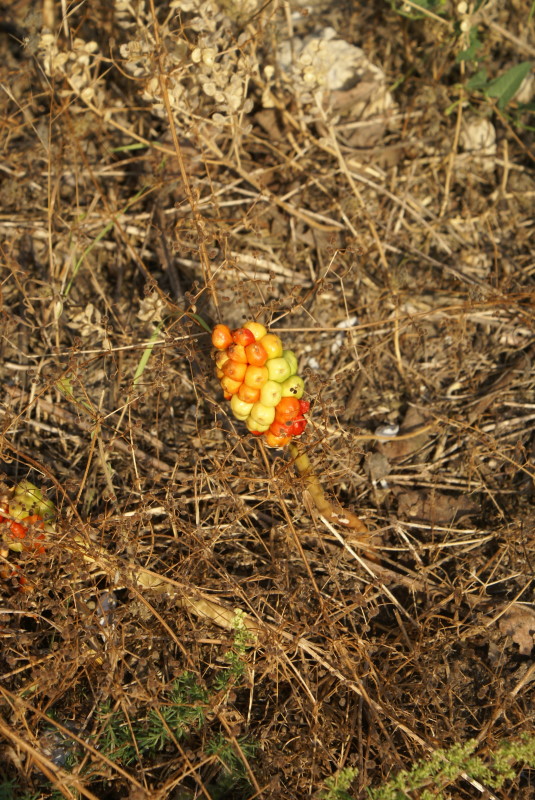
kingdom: Plantae
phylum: Tracheophyta
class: Liliopsida
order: Alismatales
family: Araceae
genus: Arum
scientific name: Arum
